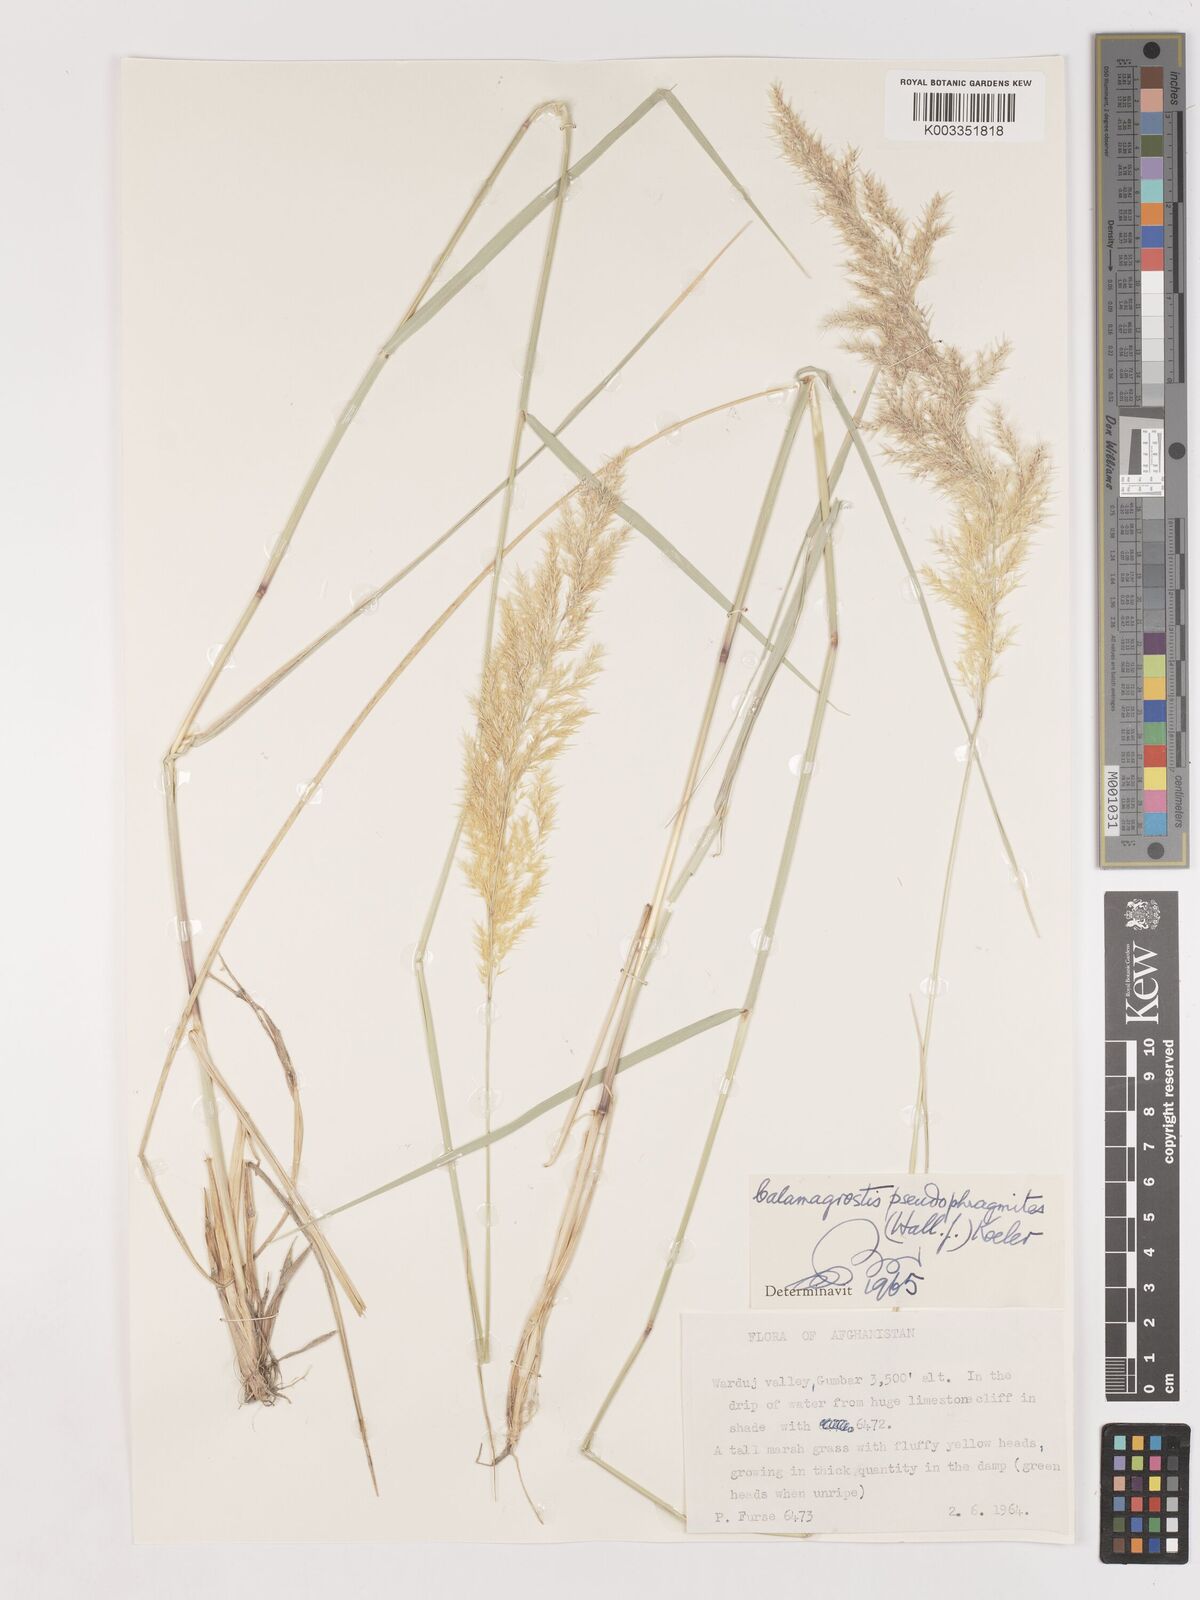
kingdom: Plantae
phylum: Tracheophyta
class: Liliopsida
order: Poales
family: Poaceae
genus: Calamagrostis
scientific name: Calamagrostis pseudophragmites
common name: Coastal small-reed
